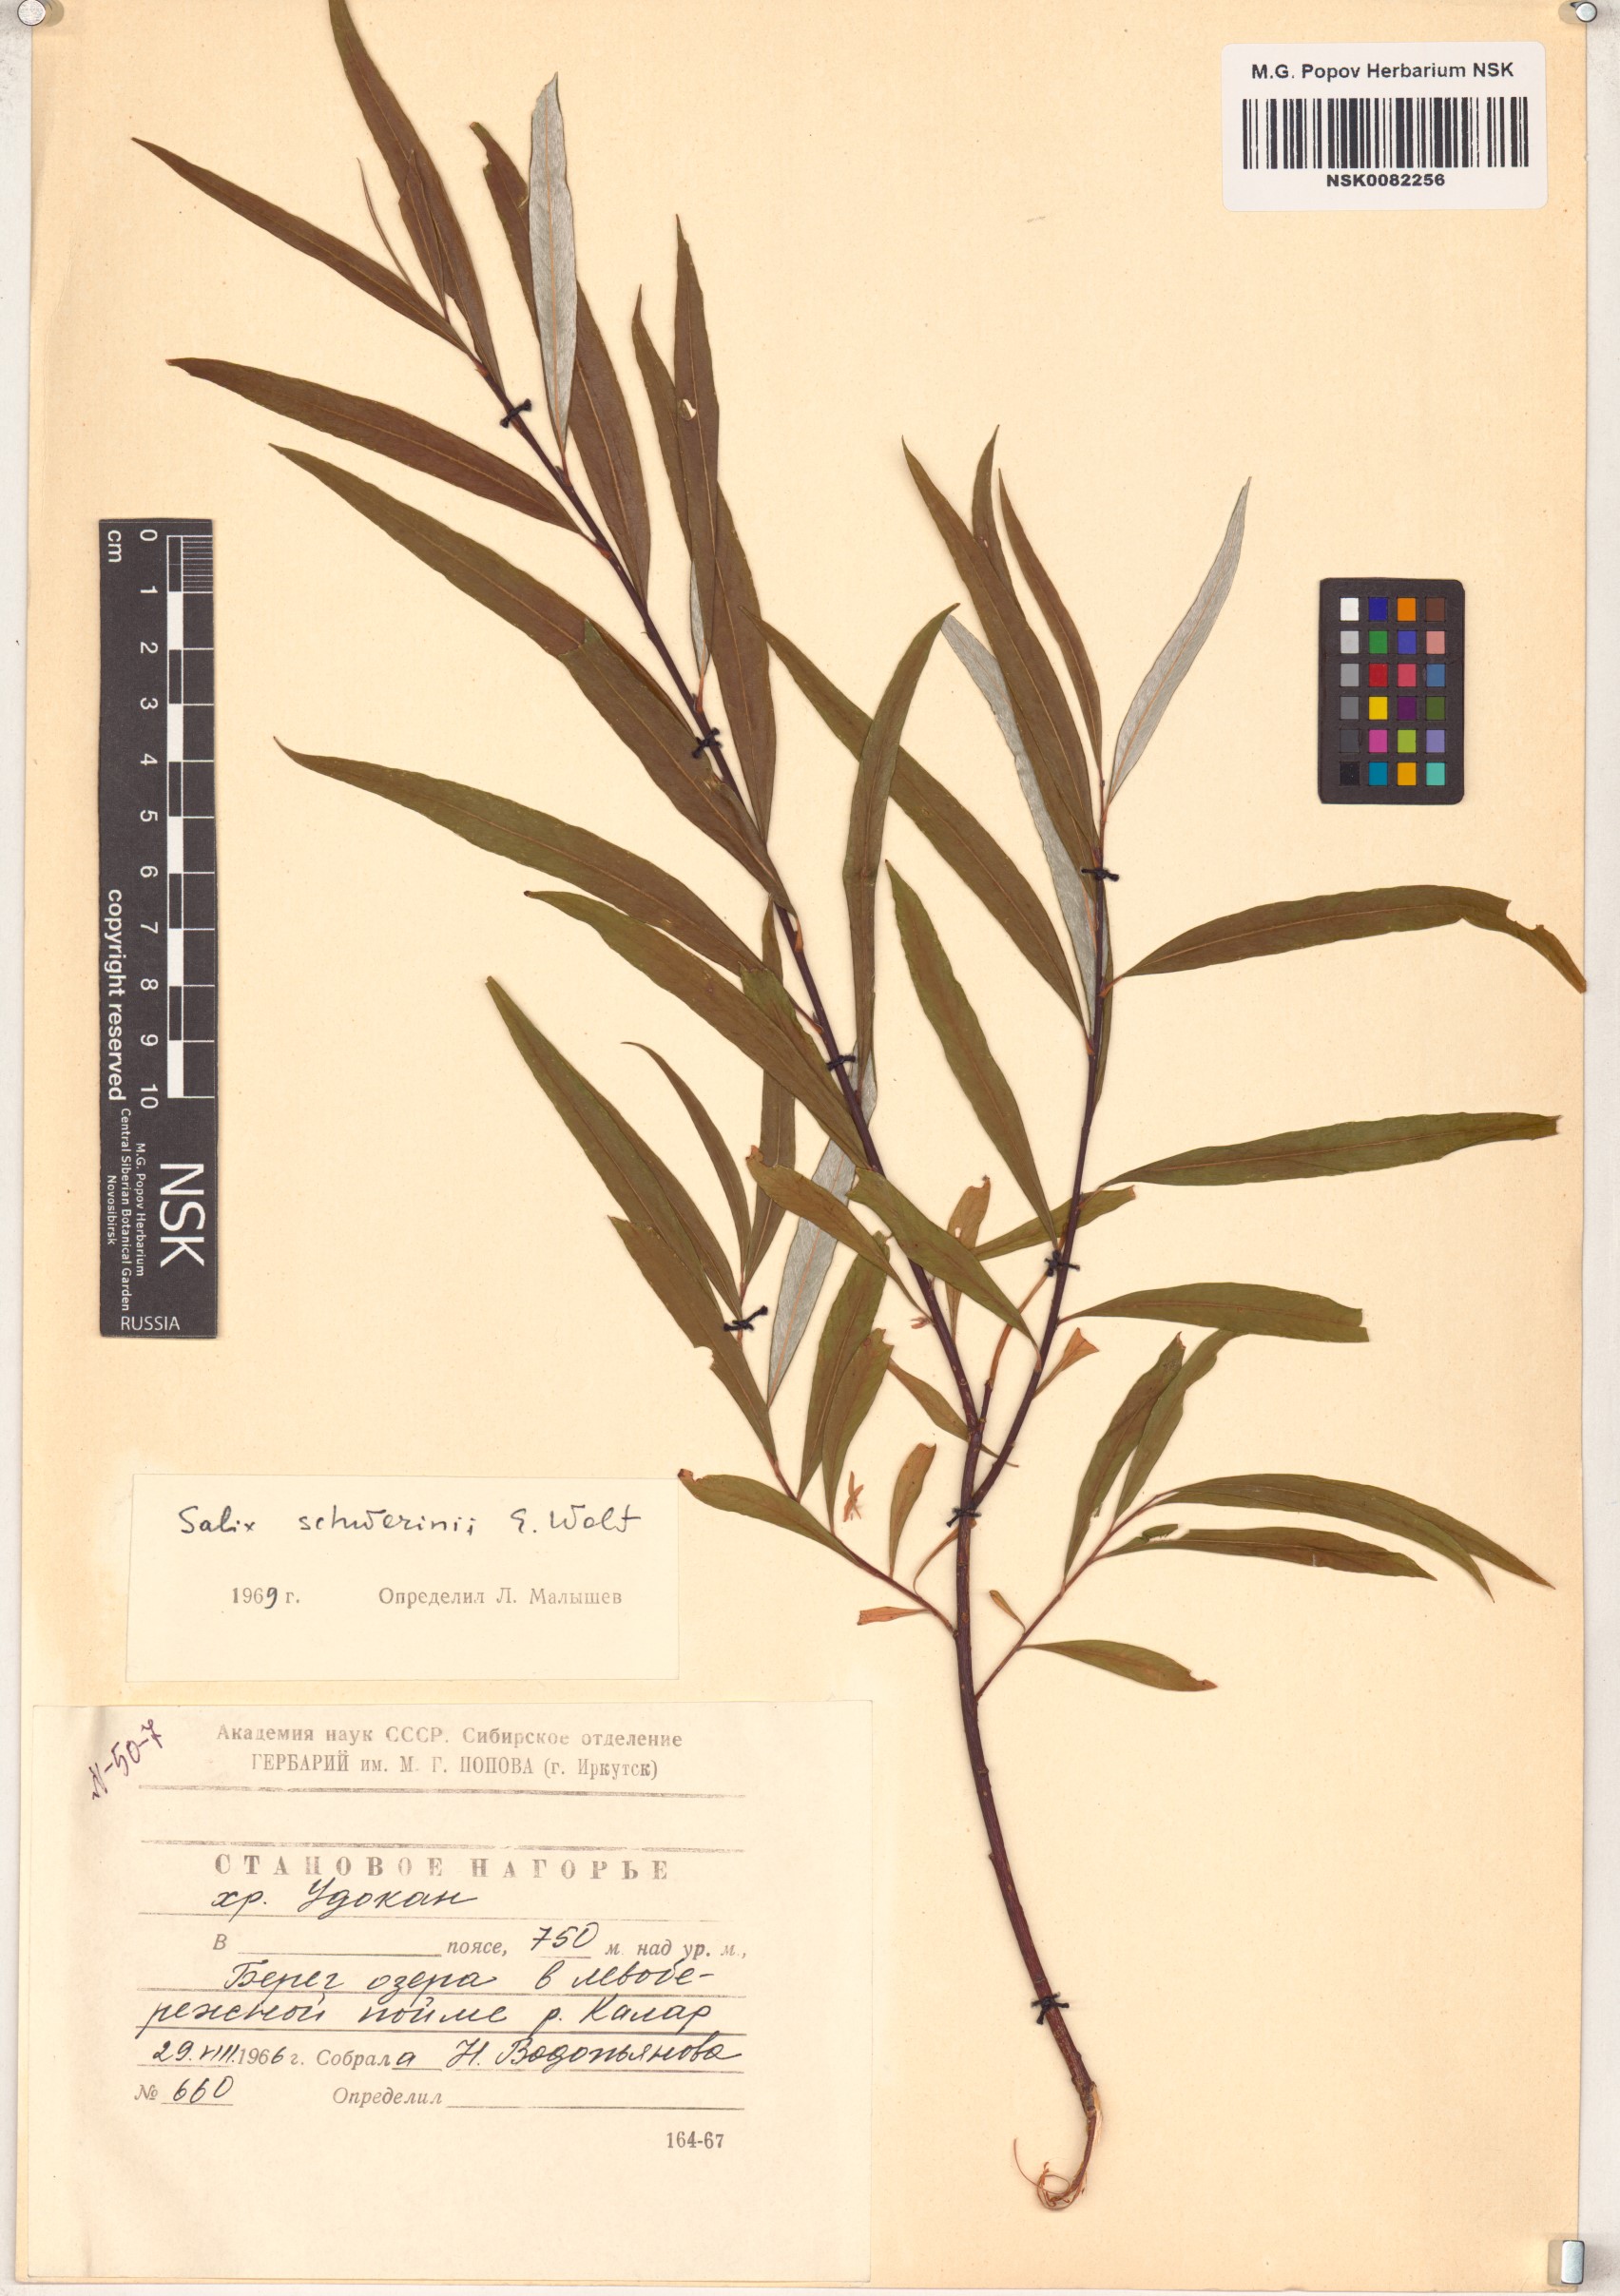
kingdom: Plantae
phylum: Tracheophyta
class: Magnoliopsida
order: Malpighiales
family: Salicaceae
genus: Salix
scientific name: Salix schwerinii
